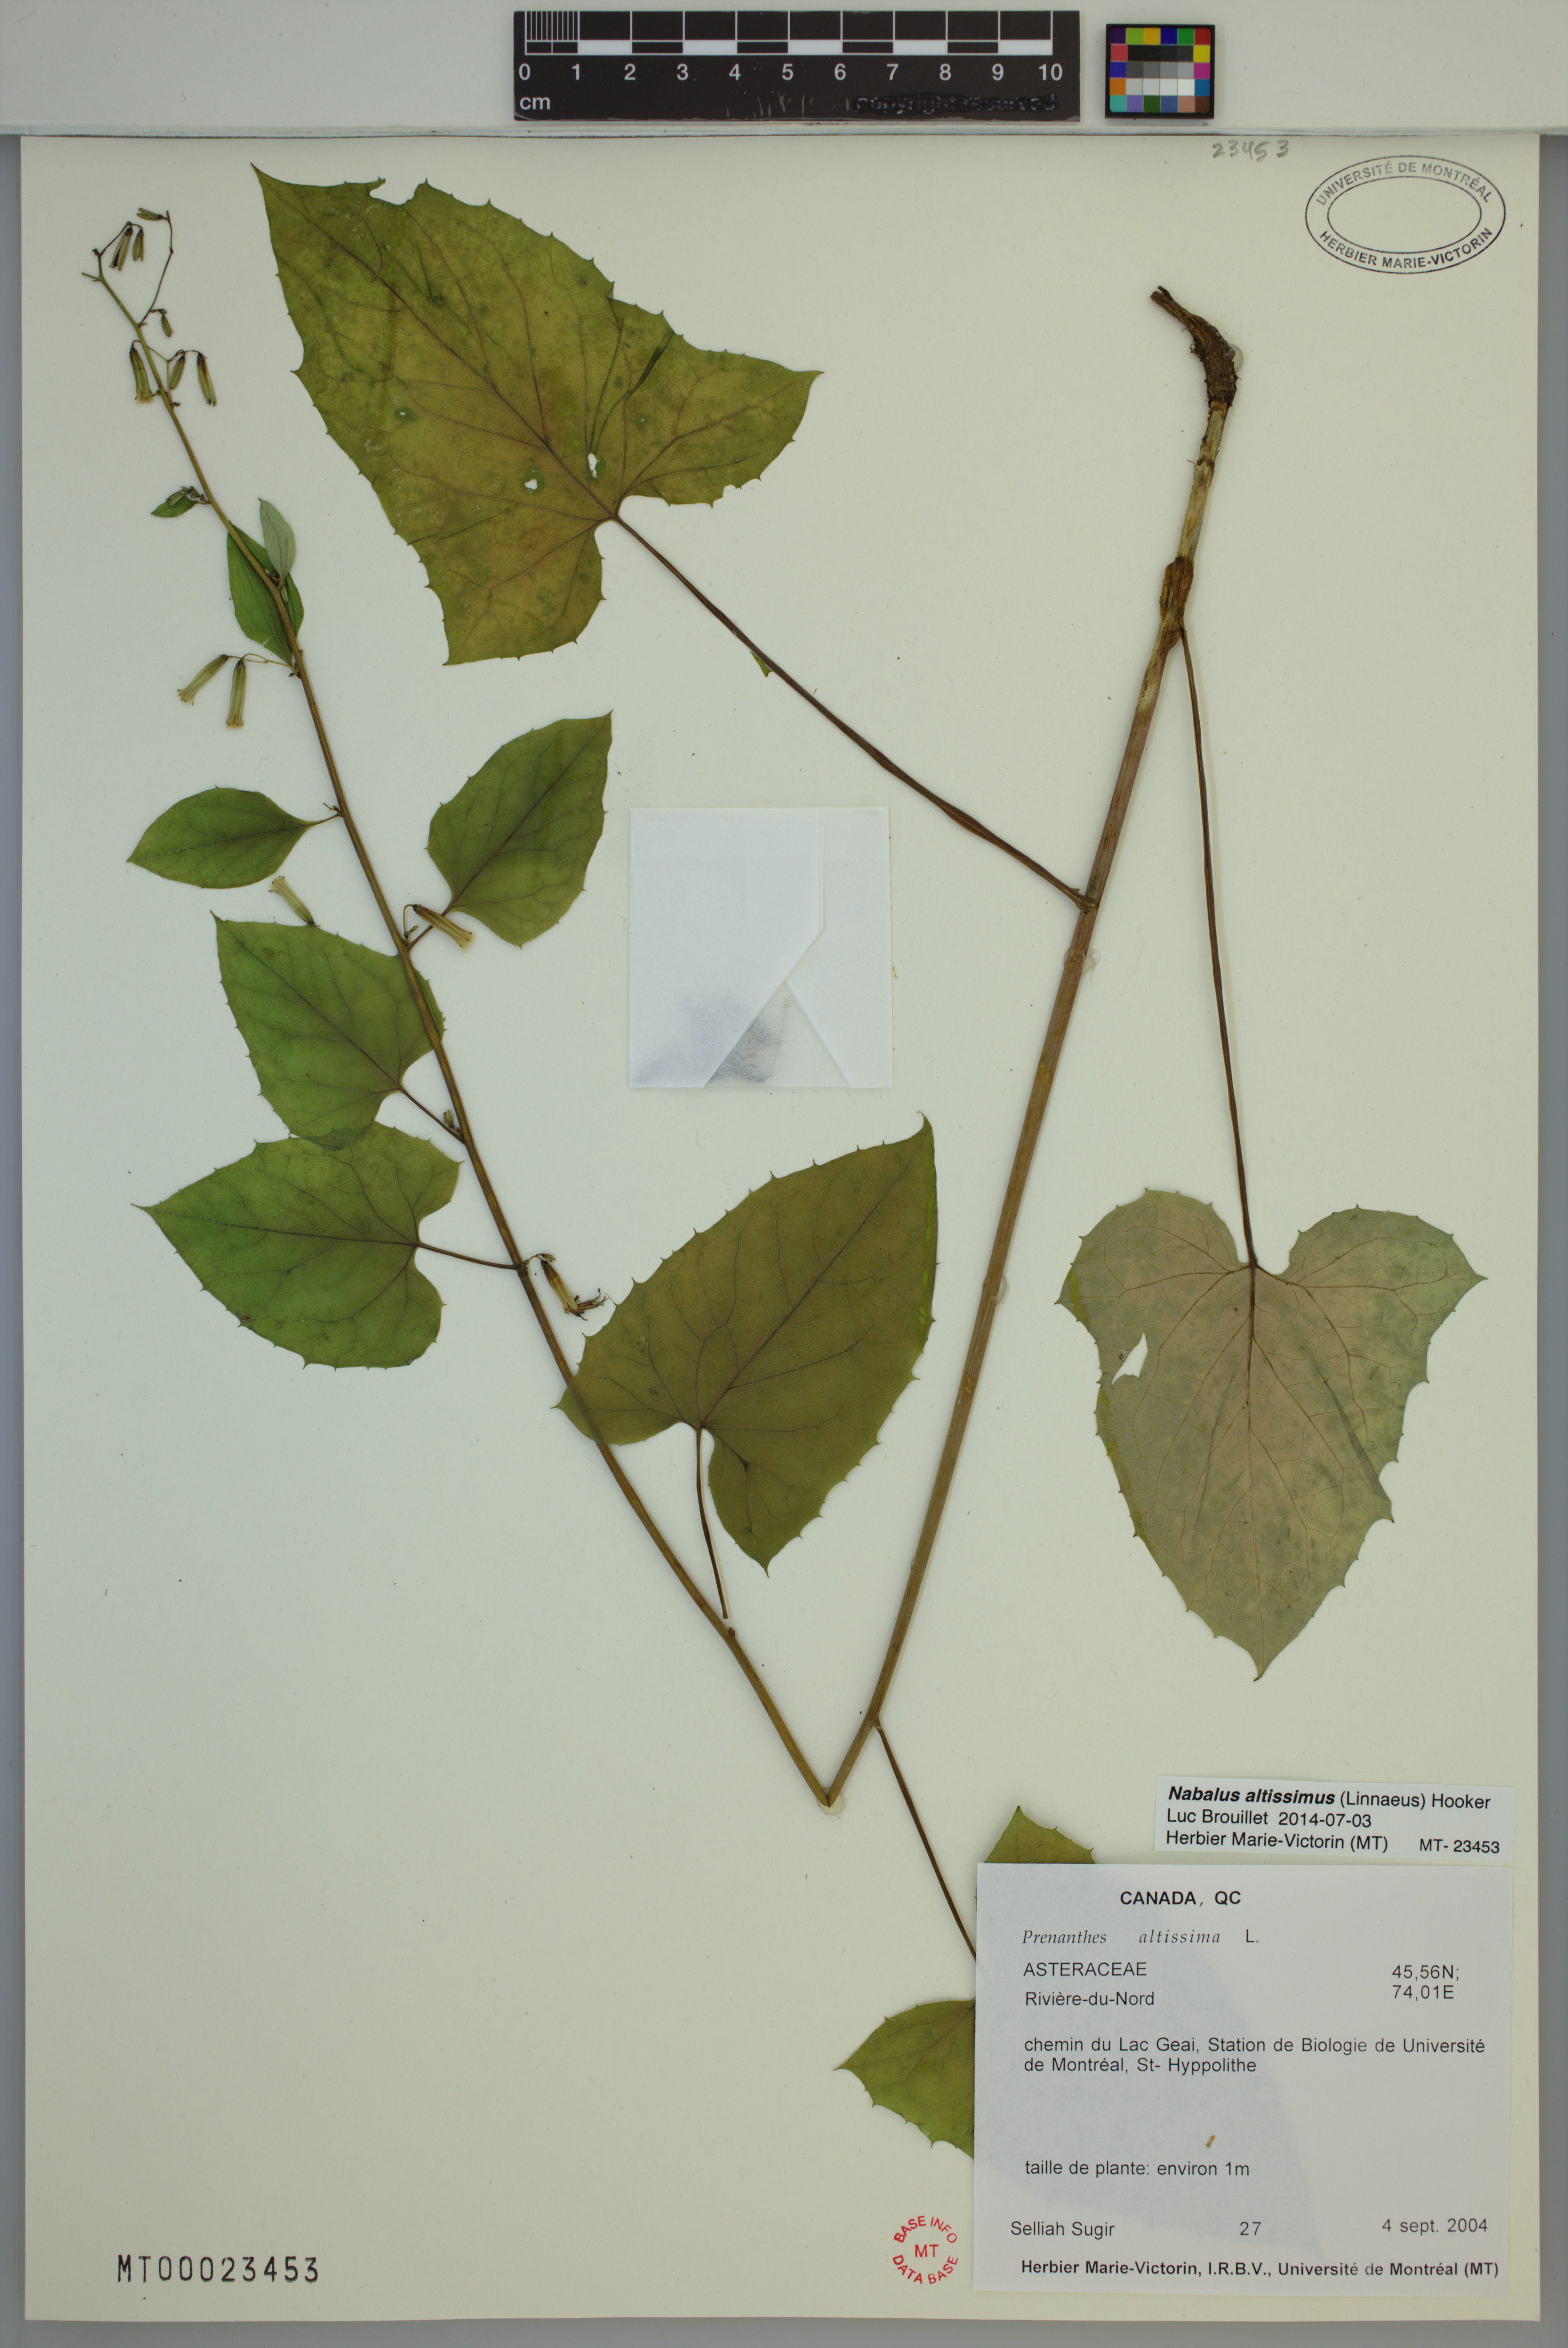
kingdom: Plantae
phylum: Tracheophyta
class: Magnoliopsida
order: Asterales
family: Asteraceae
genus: Nabalus
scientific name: Nabalus altissima
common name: Tall rattlesnakeroot
